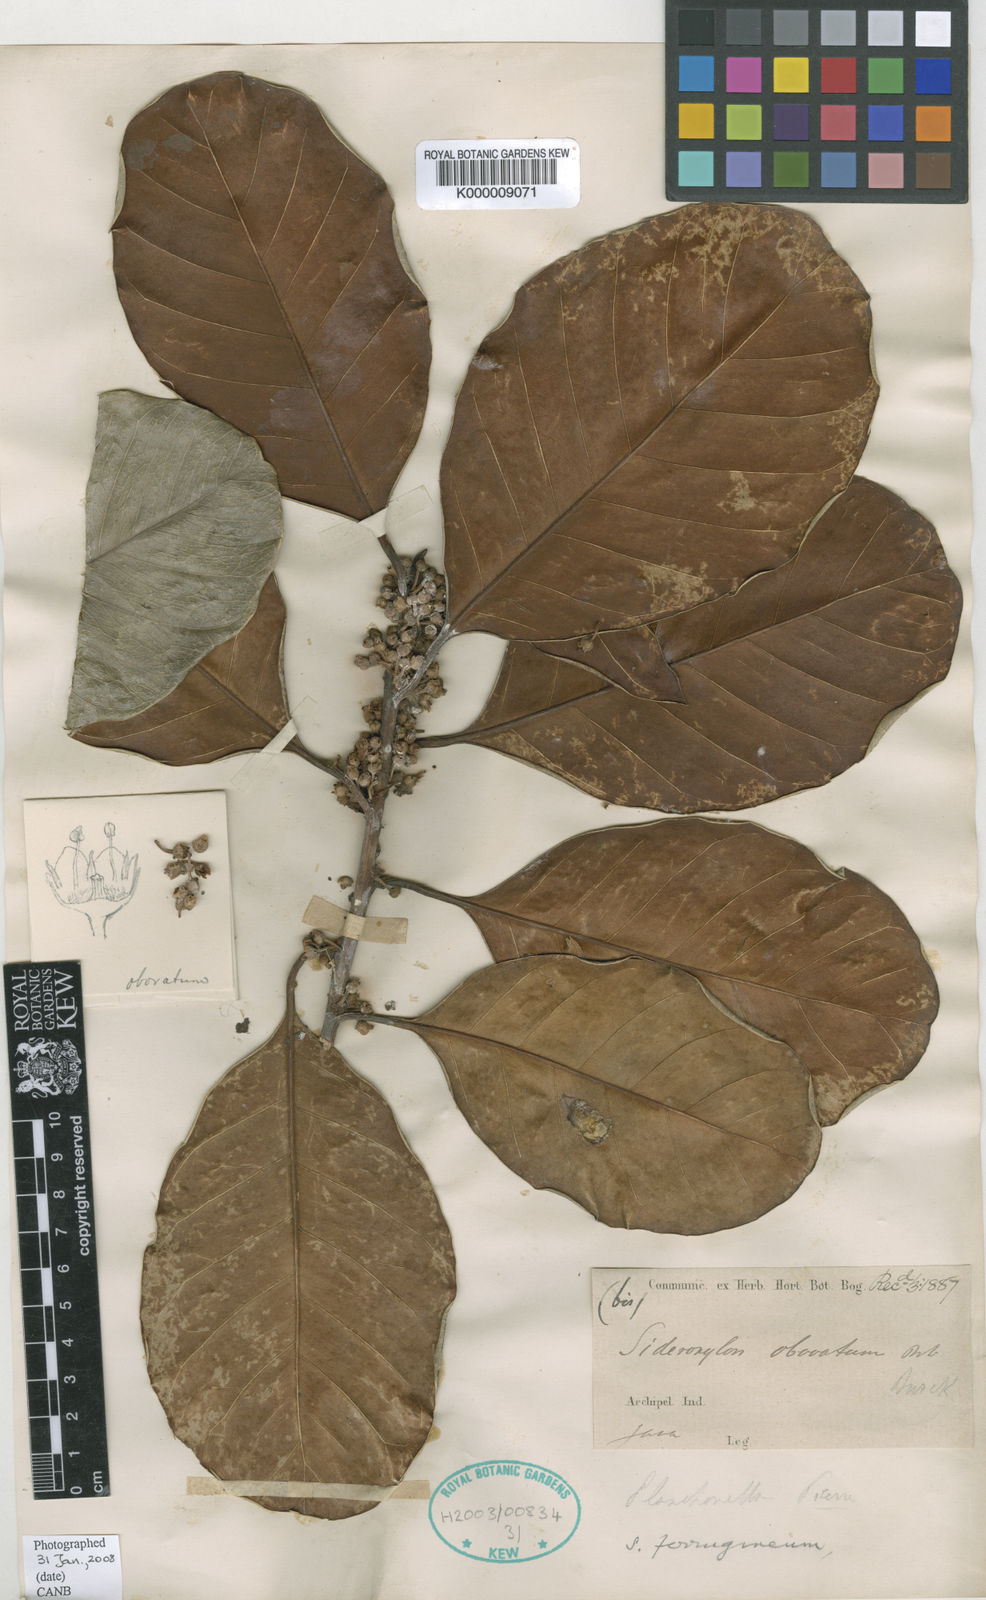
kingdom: Plantae
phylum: Tracheophyta
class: Magnoliopsida
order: Ericales
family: Sapotaceae
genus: Planchonella
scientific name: Planchonella obovata
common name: Black-ash
